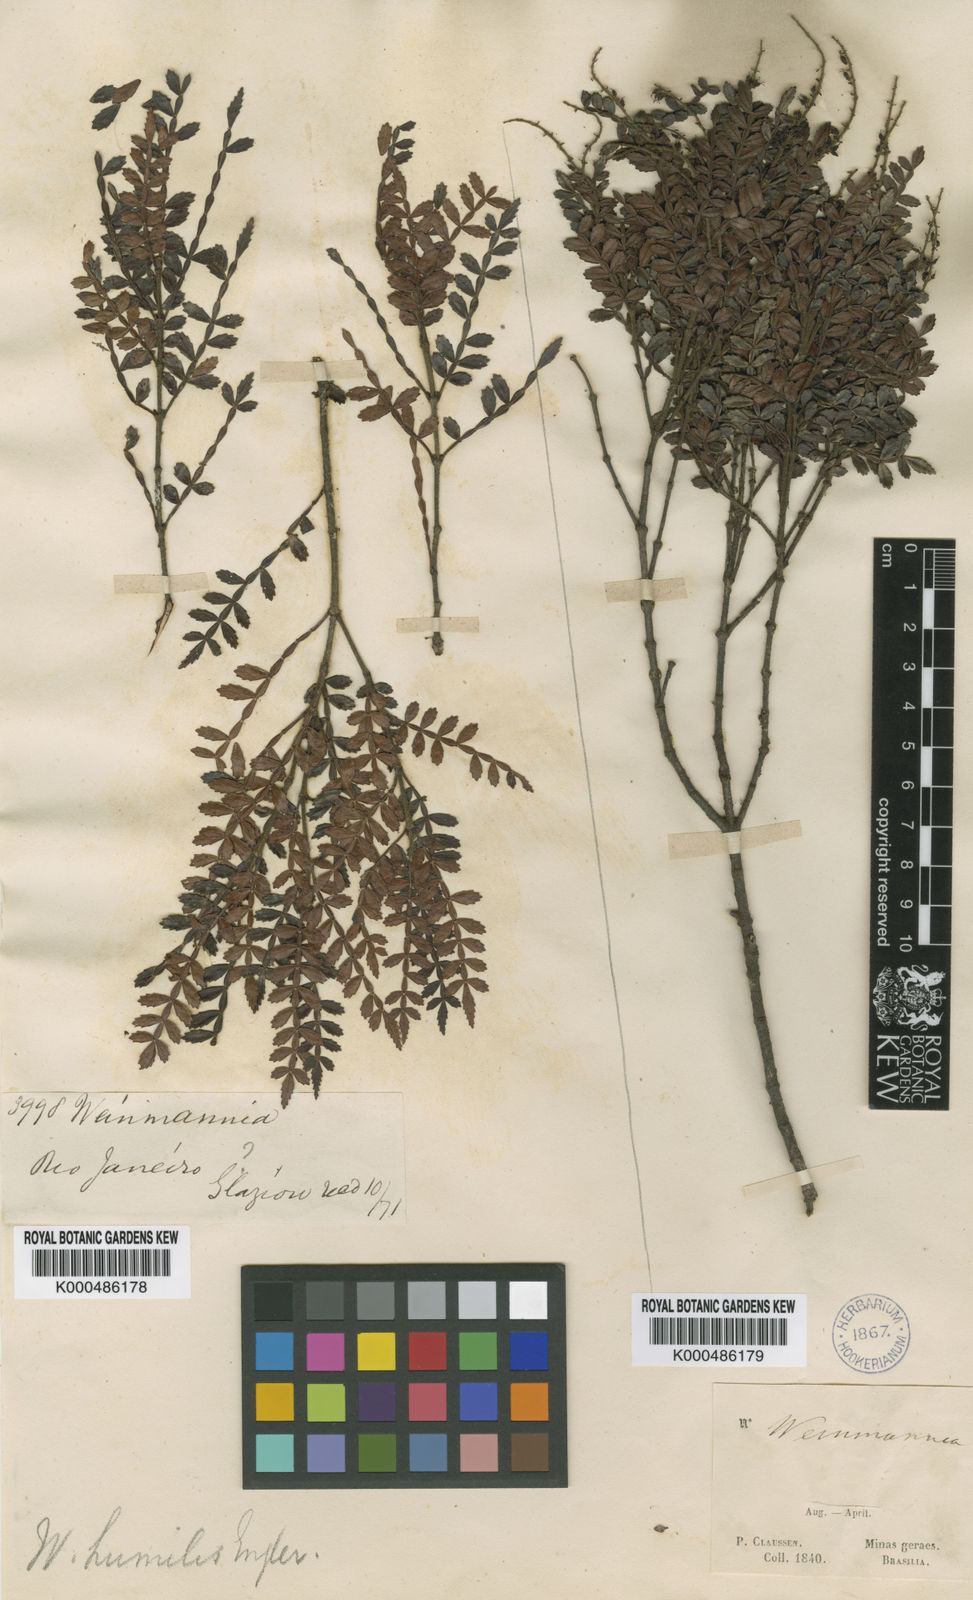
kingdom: Plantae
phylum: Tracheophyta
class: Magnoliopsida
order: Oxalidales
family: Cunoniaceae
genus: Weinmannia
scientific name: Weinmannia humilis
